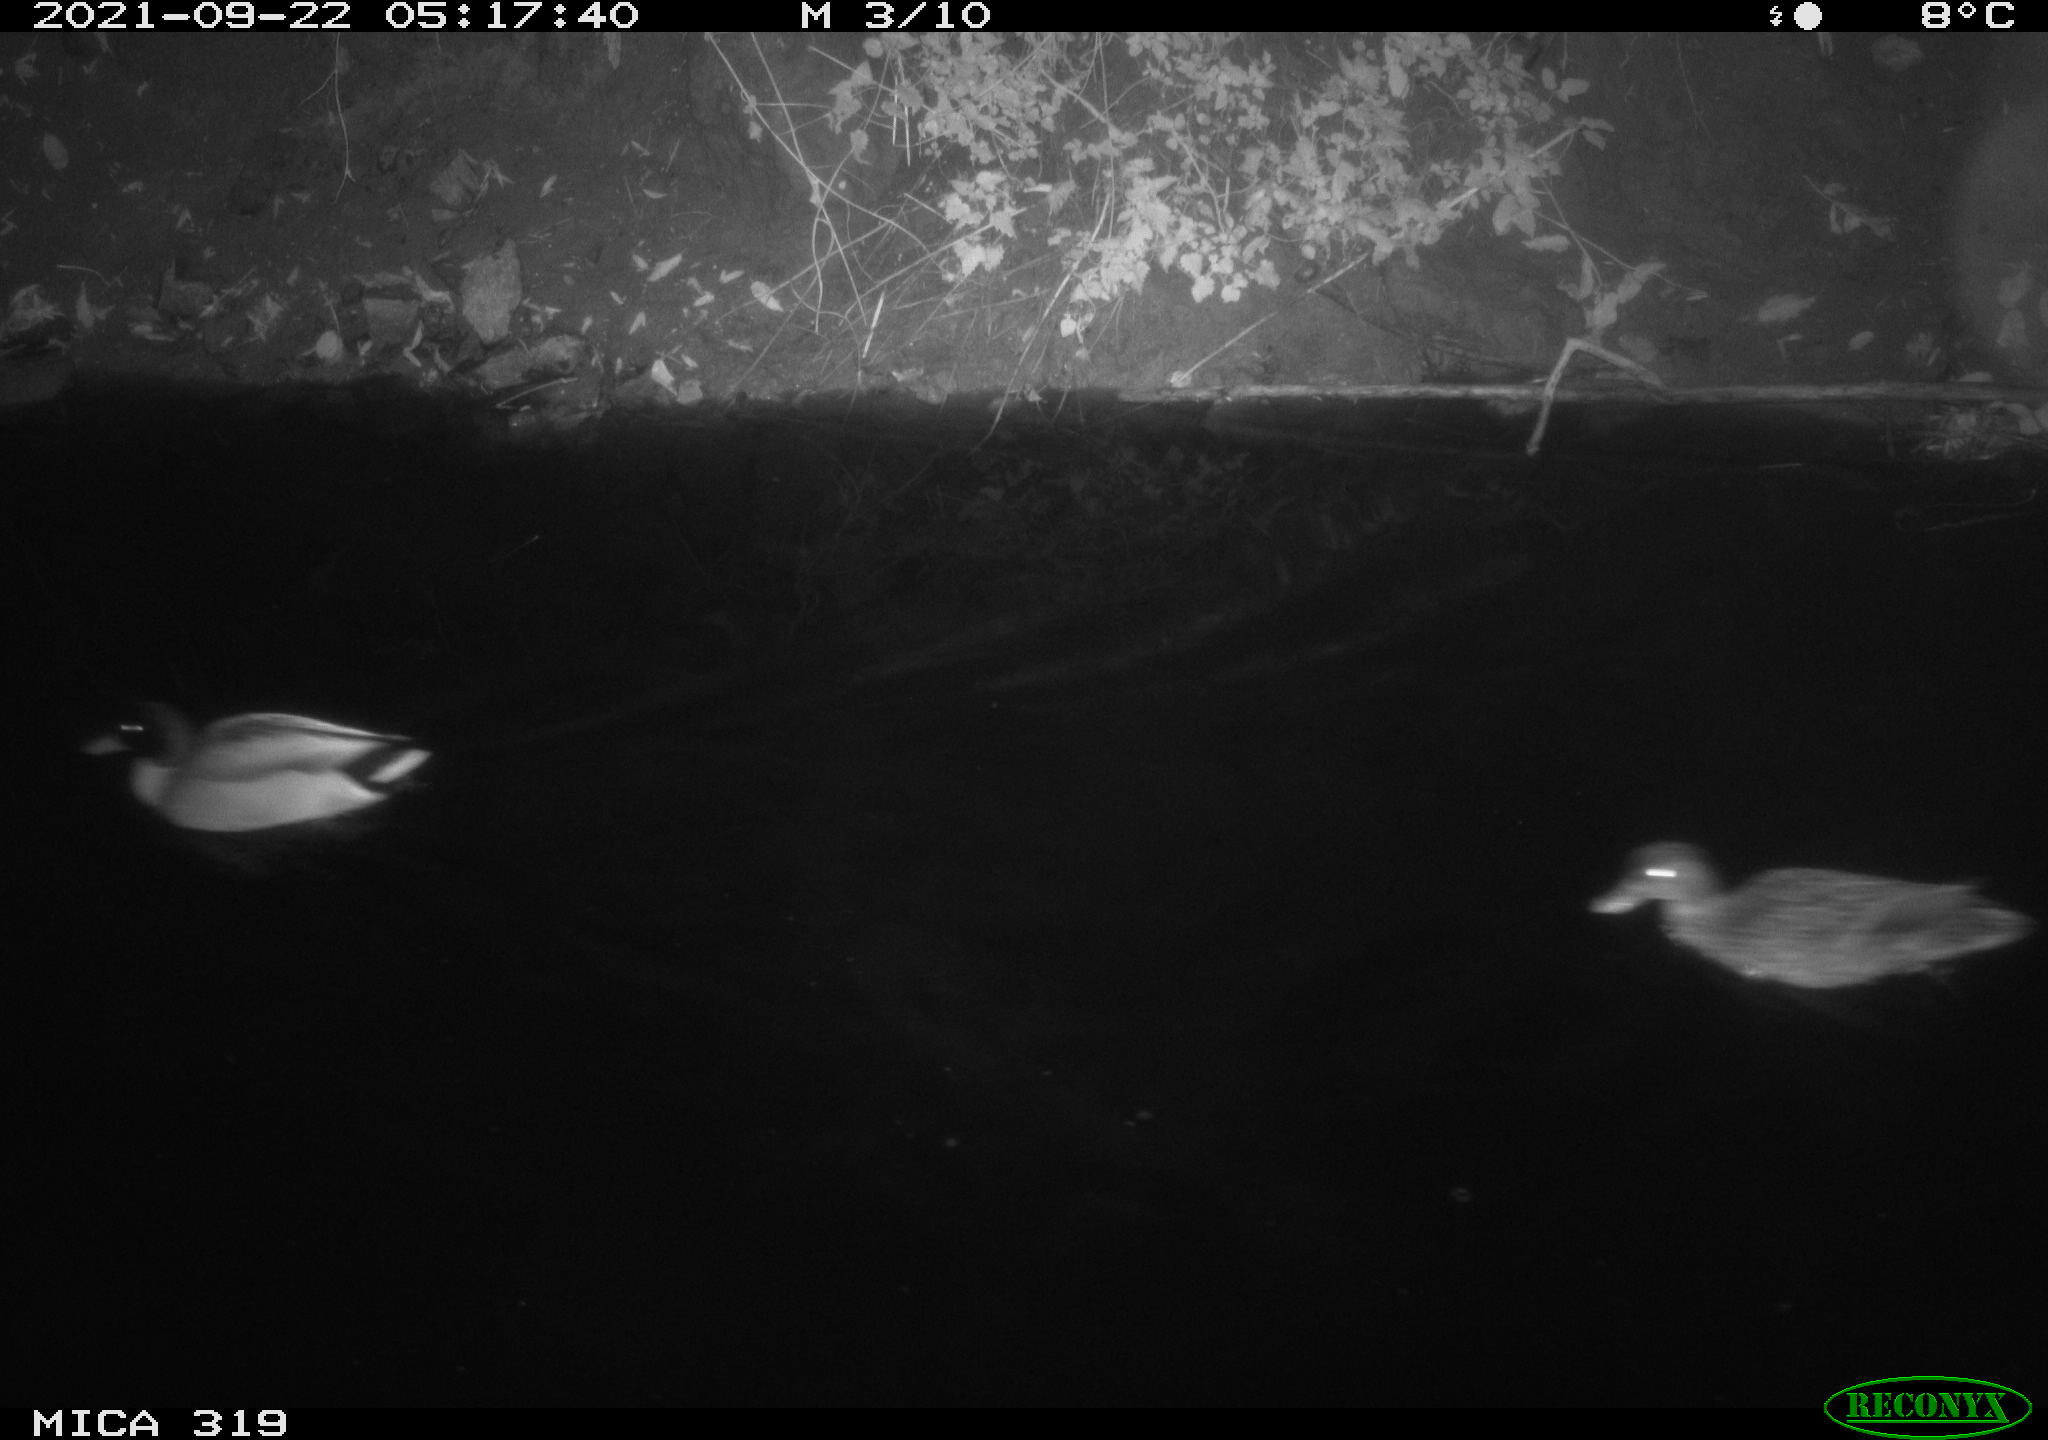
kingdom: Animalia
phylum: Chordata
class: Aves
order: Anseriformes
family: Anatidae
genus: Anas
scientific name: Anas platyrhynchos
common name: Mallard
